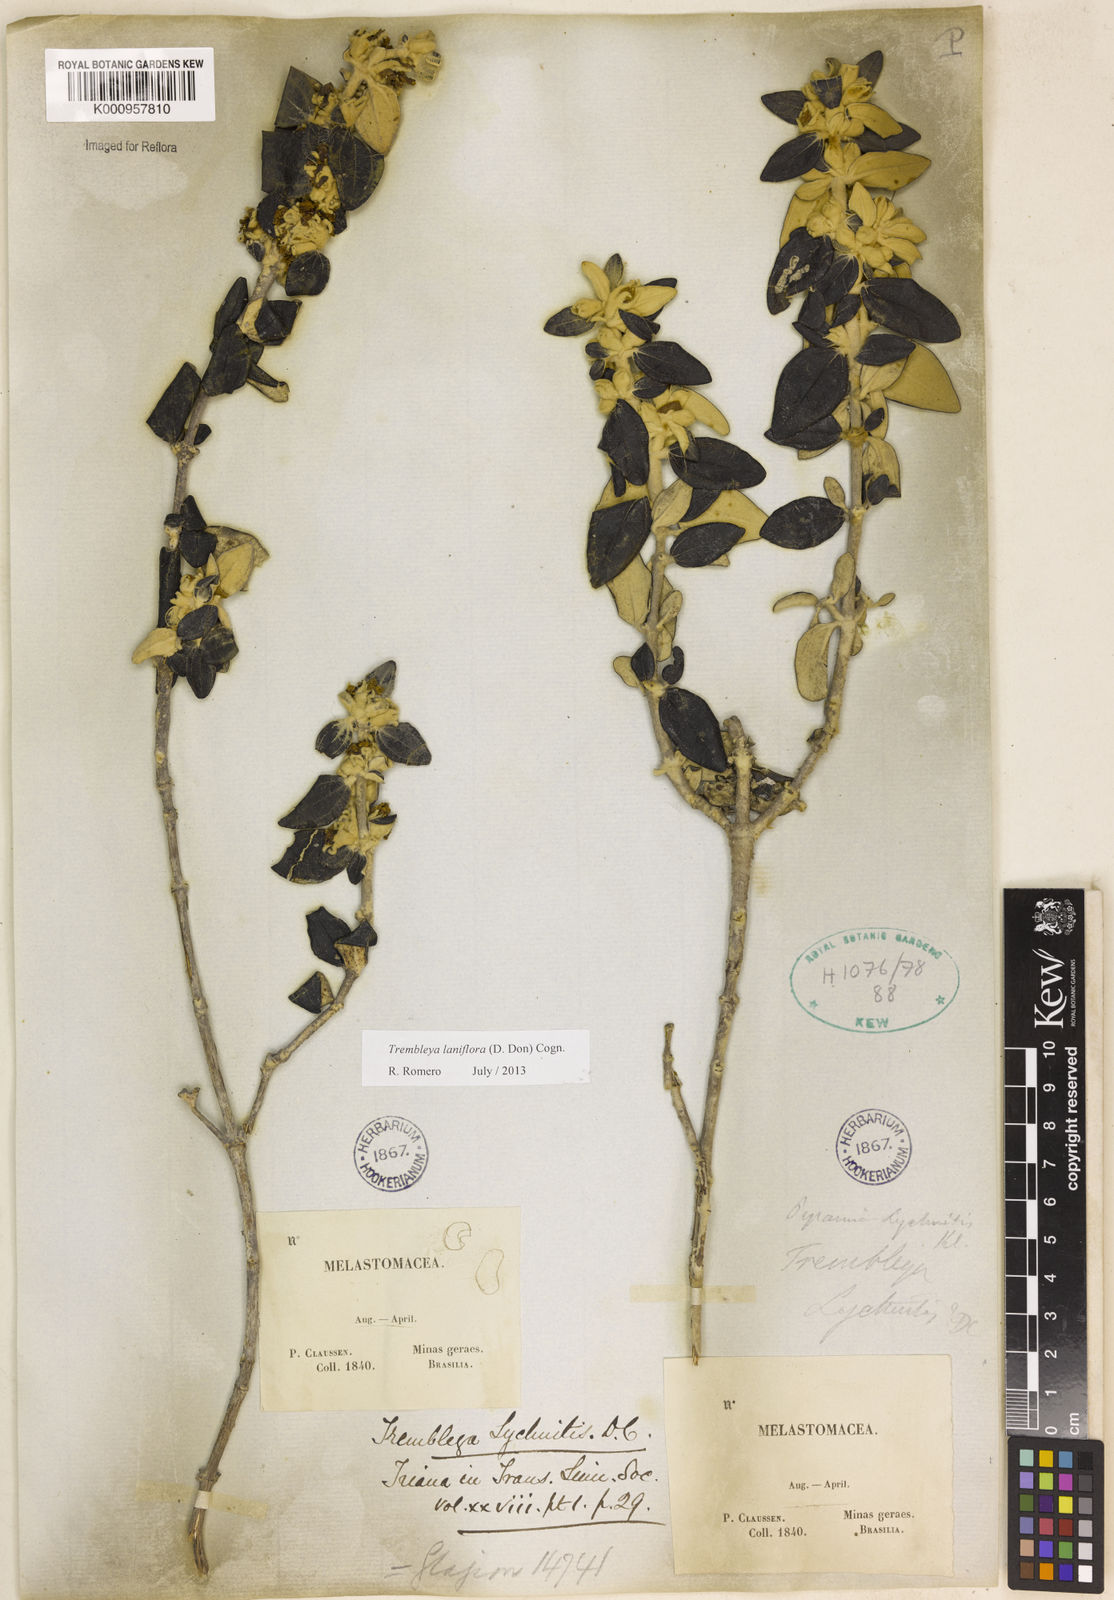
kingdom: Plantae
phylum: Tracheophyta
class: Magnoliopsida
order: Myrtales
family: Melastomataceae
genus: Microlicia
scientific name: Microlicia laniflora
